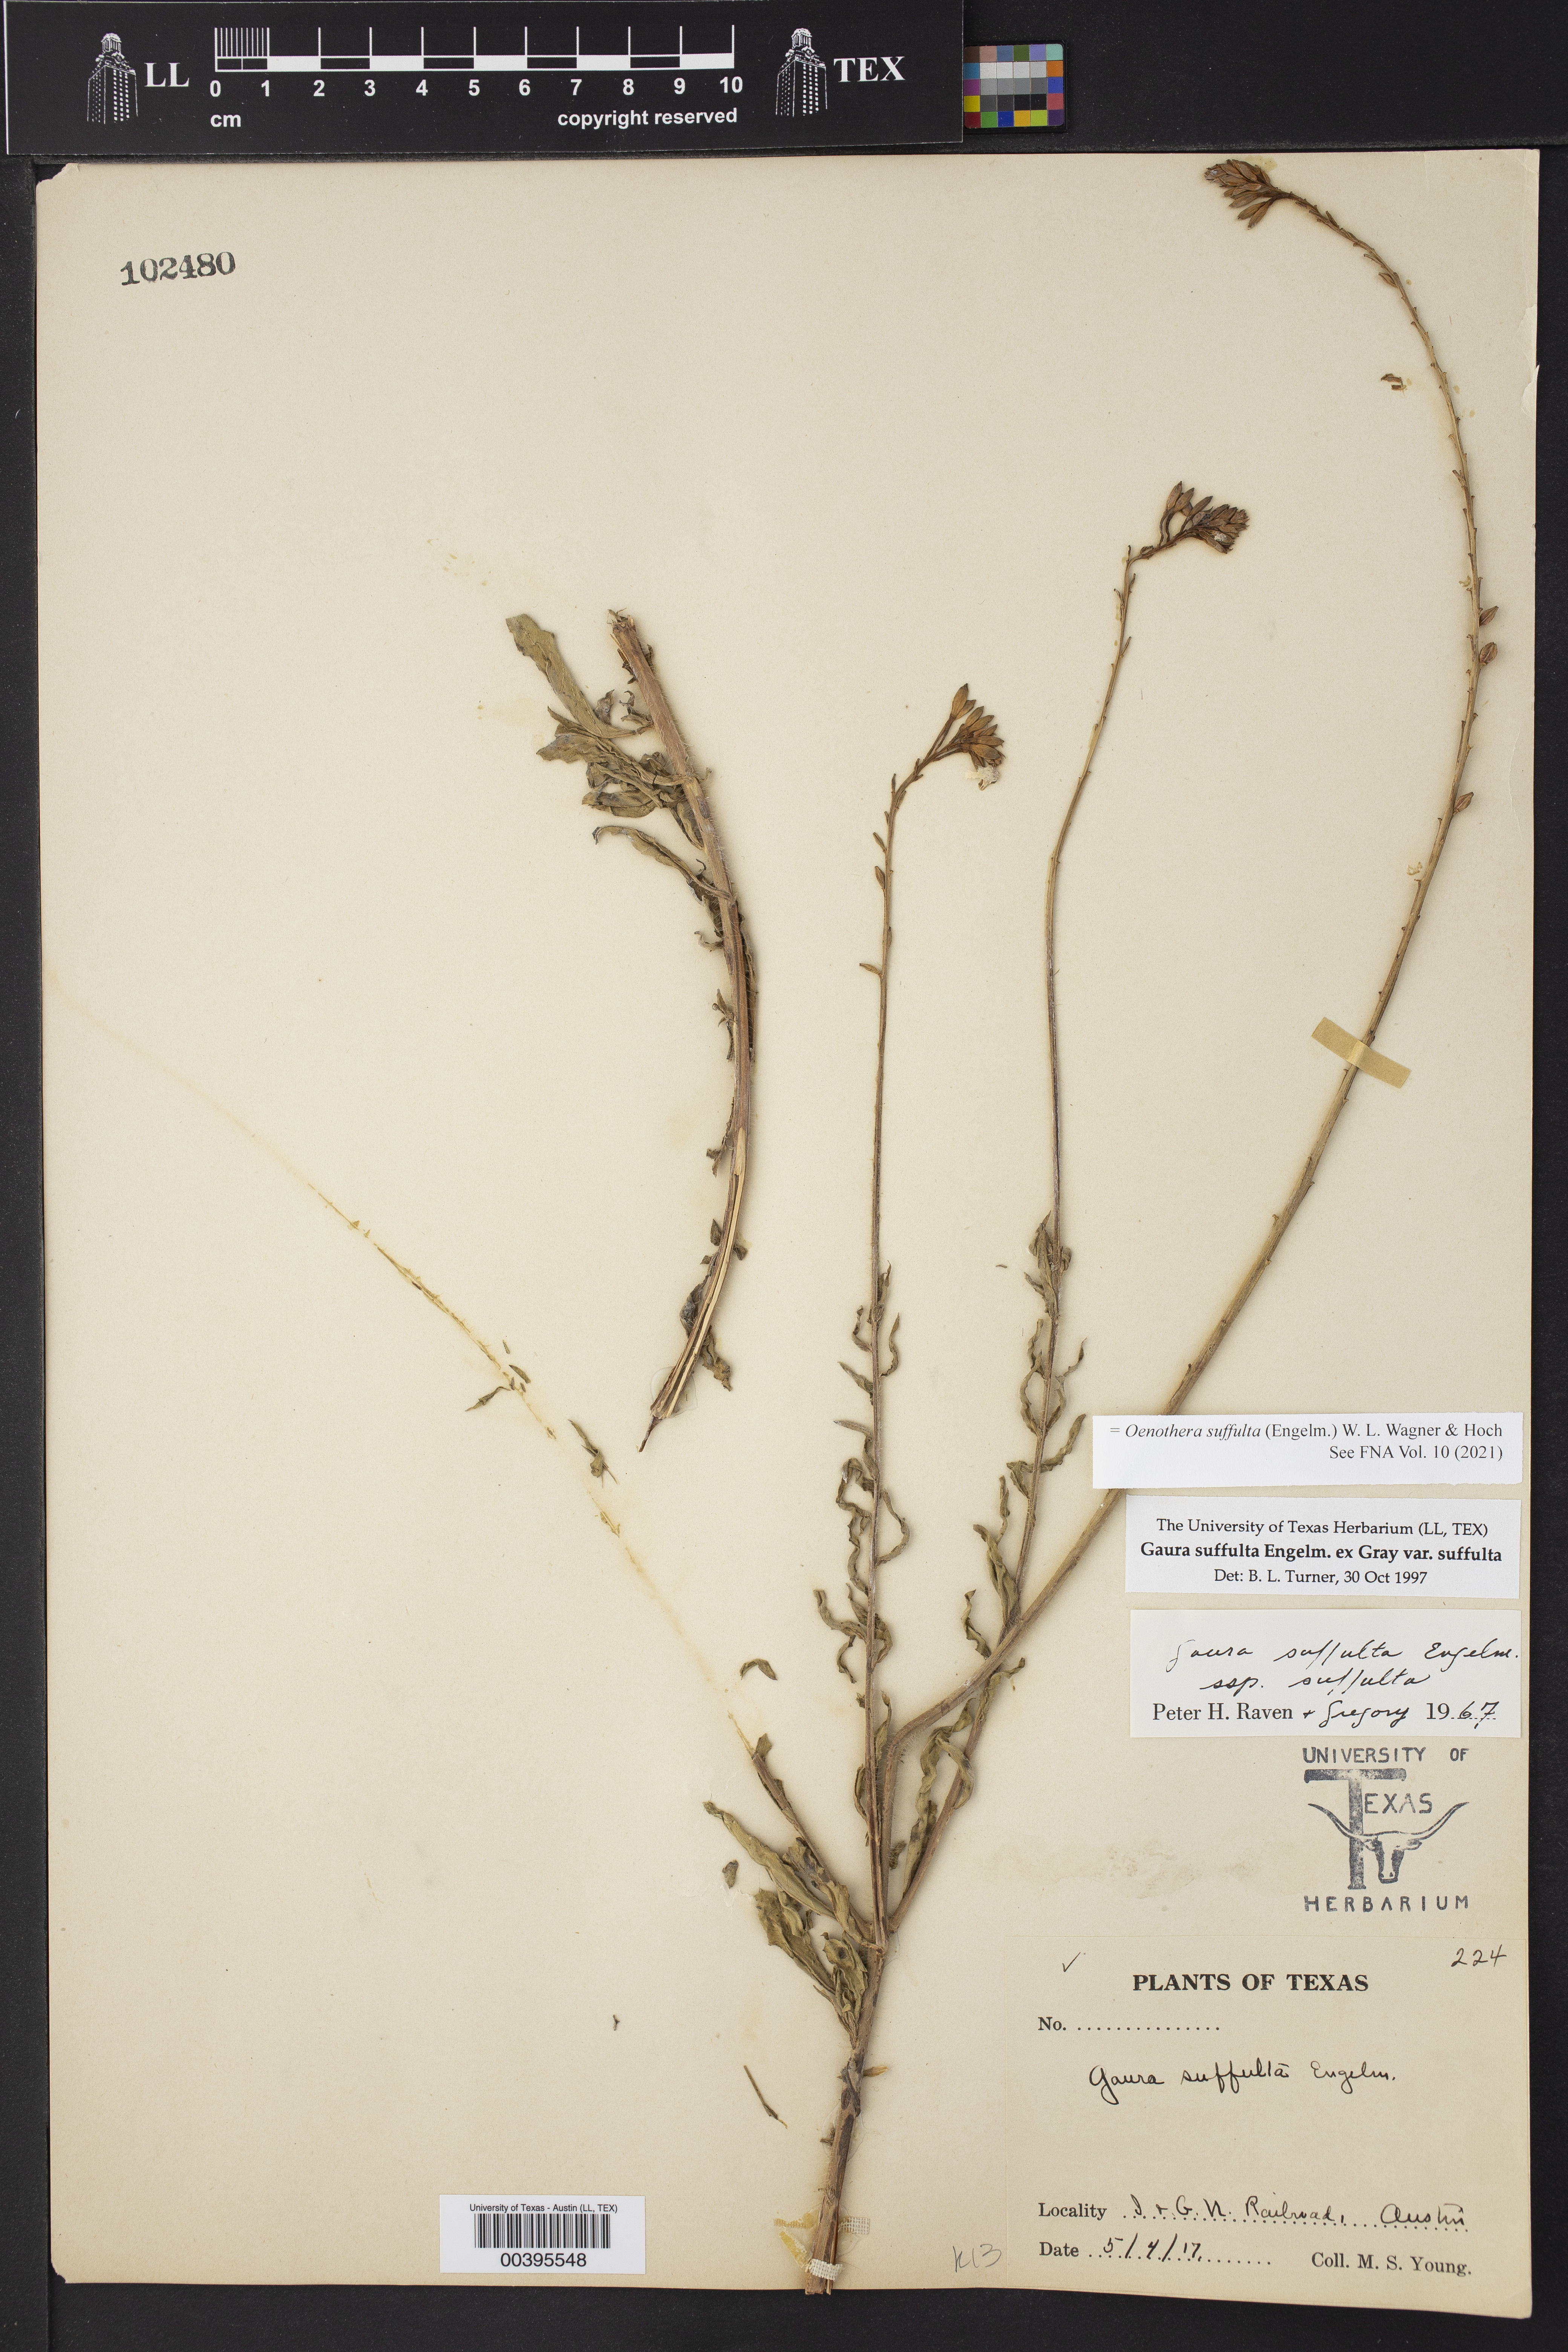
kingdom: Plantae
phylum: Tracheophyta
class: Magnoliopsida
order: Myrtales
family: Onagraceae
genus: Oenothera
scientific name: Oenothera suffulta
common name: Kisses
